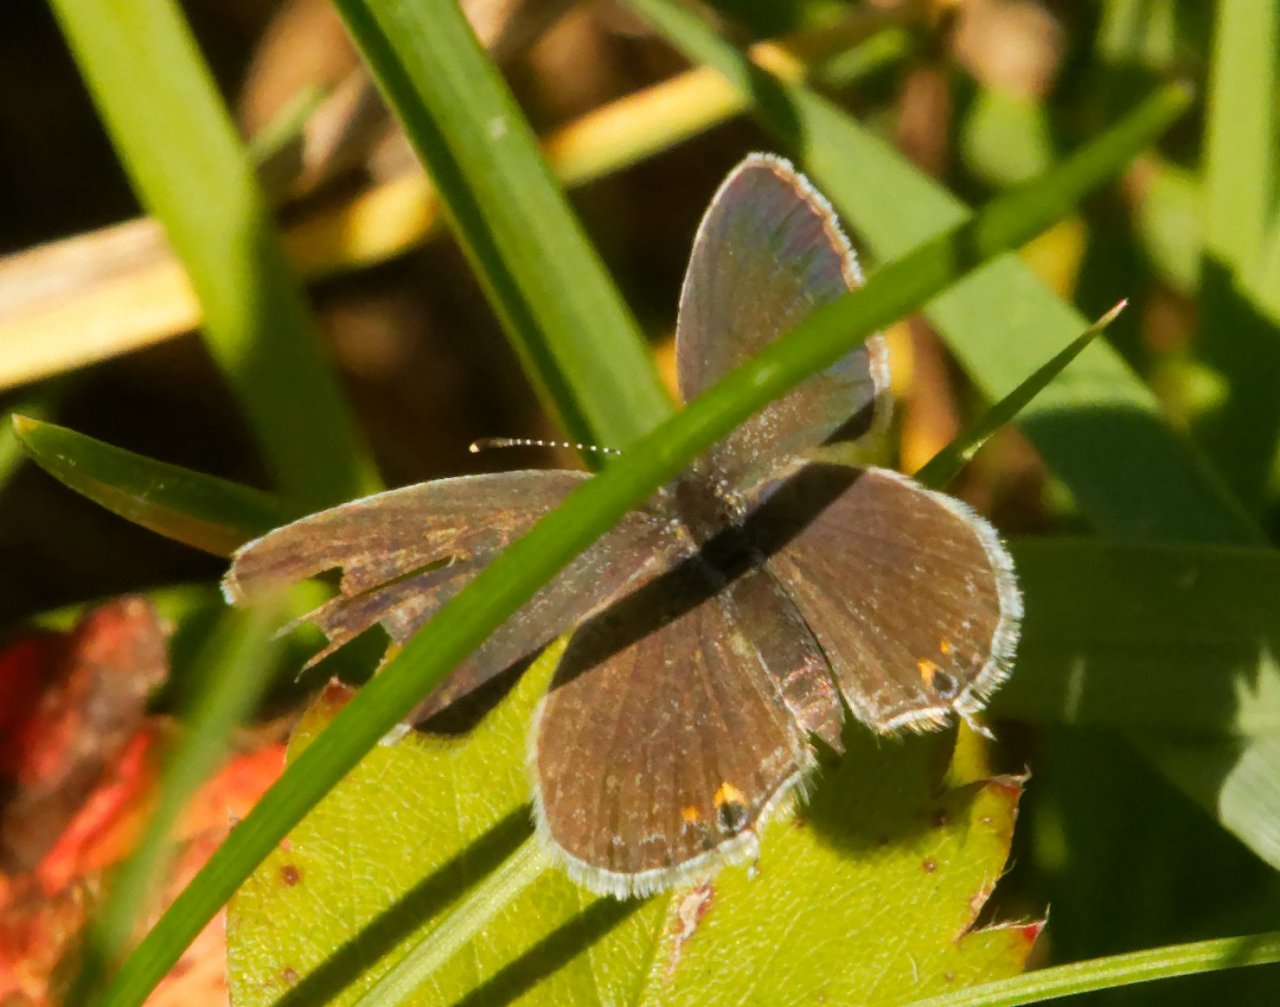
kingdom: Animalia
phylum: Arthropoda
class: Insecta
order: Lepidoptera
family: Lycaenidae
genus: Elkalyce
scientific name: Elkalyce comyntas
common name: Eastern Tailed-Blue
